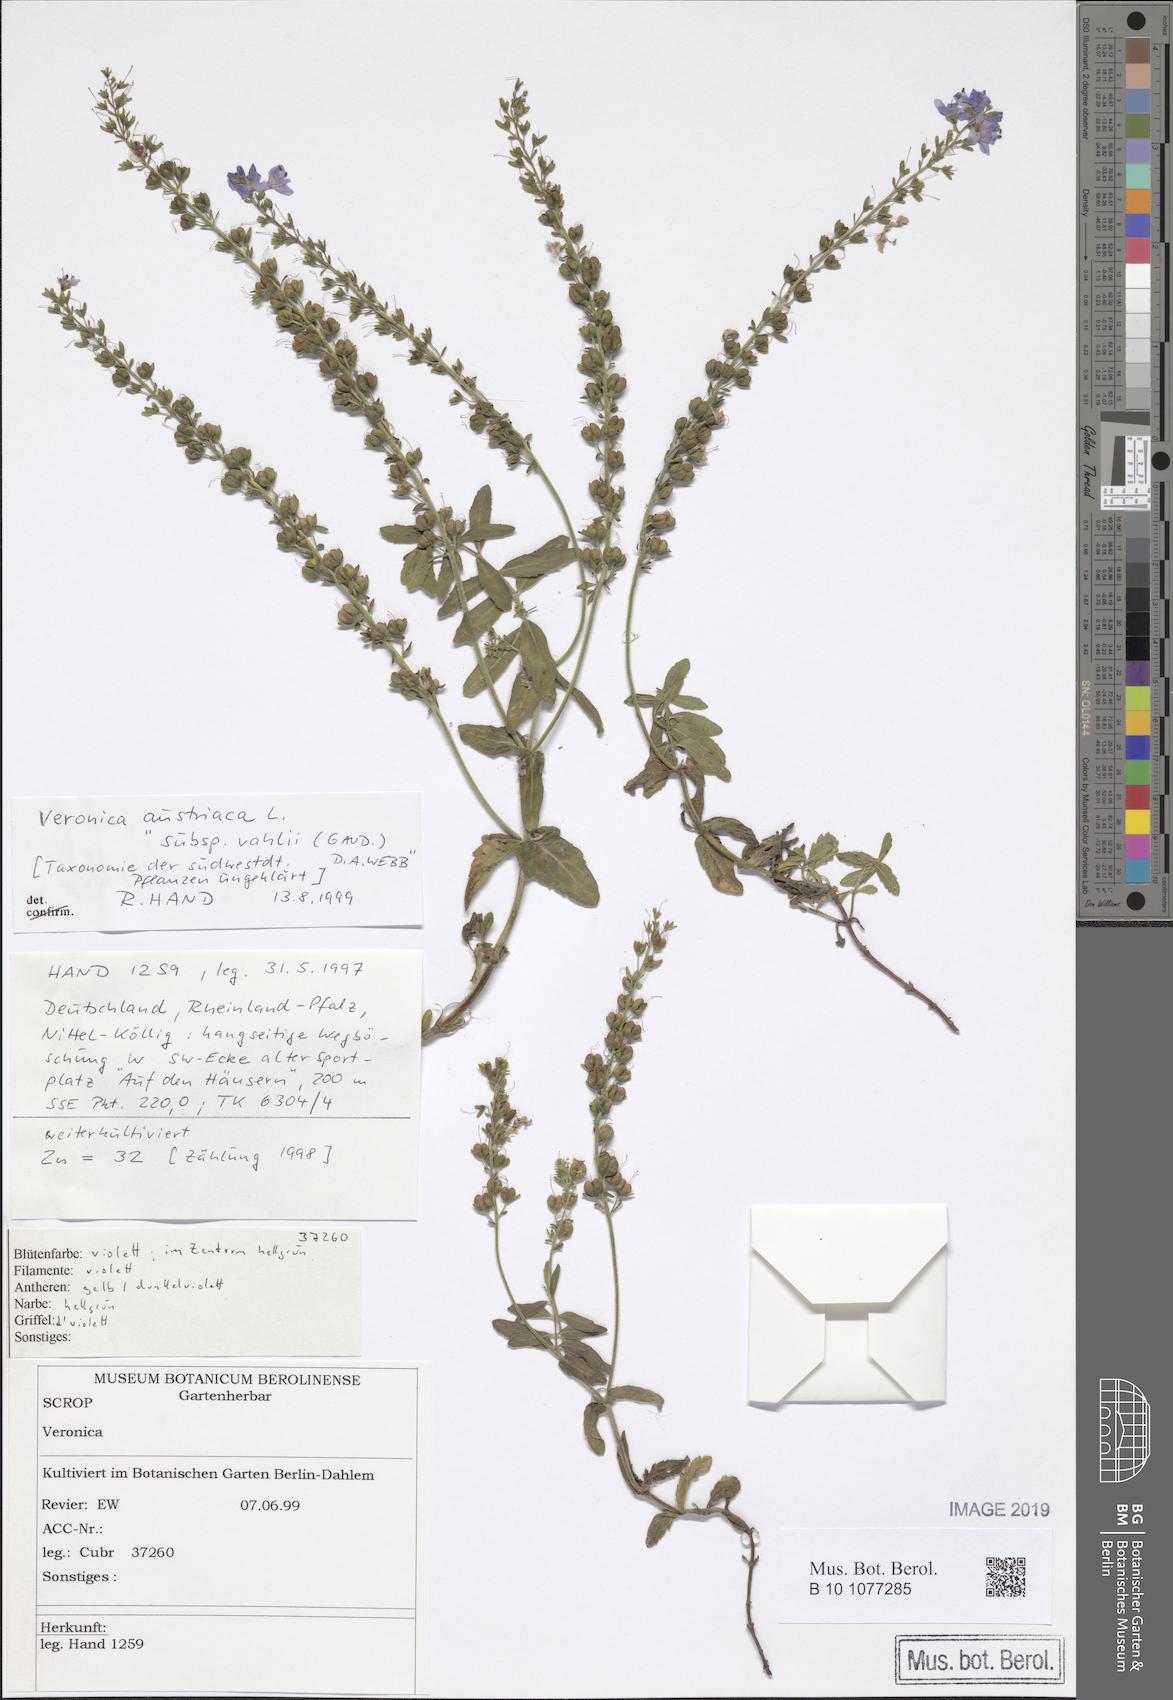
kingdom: Plantae
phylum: Tracheophyta
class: Magnoliopsida
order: Lamiales
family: Plantaginaceae
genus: Veronica
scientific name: Veronica angustifolia
